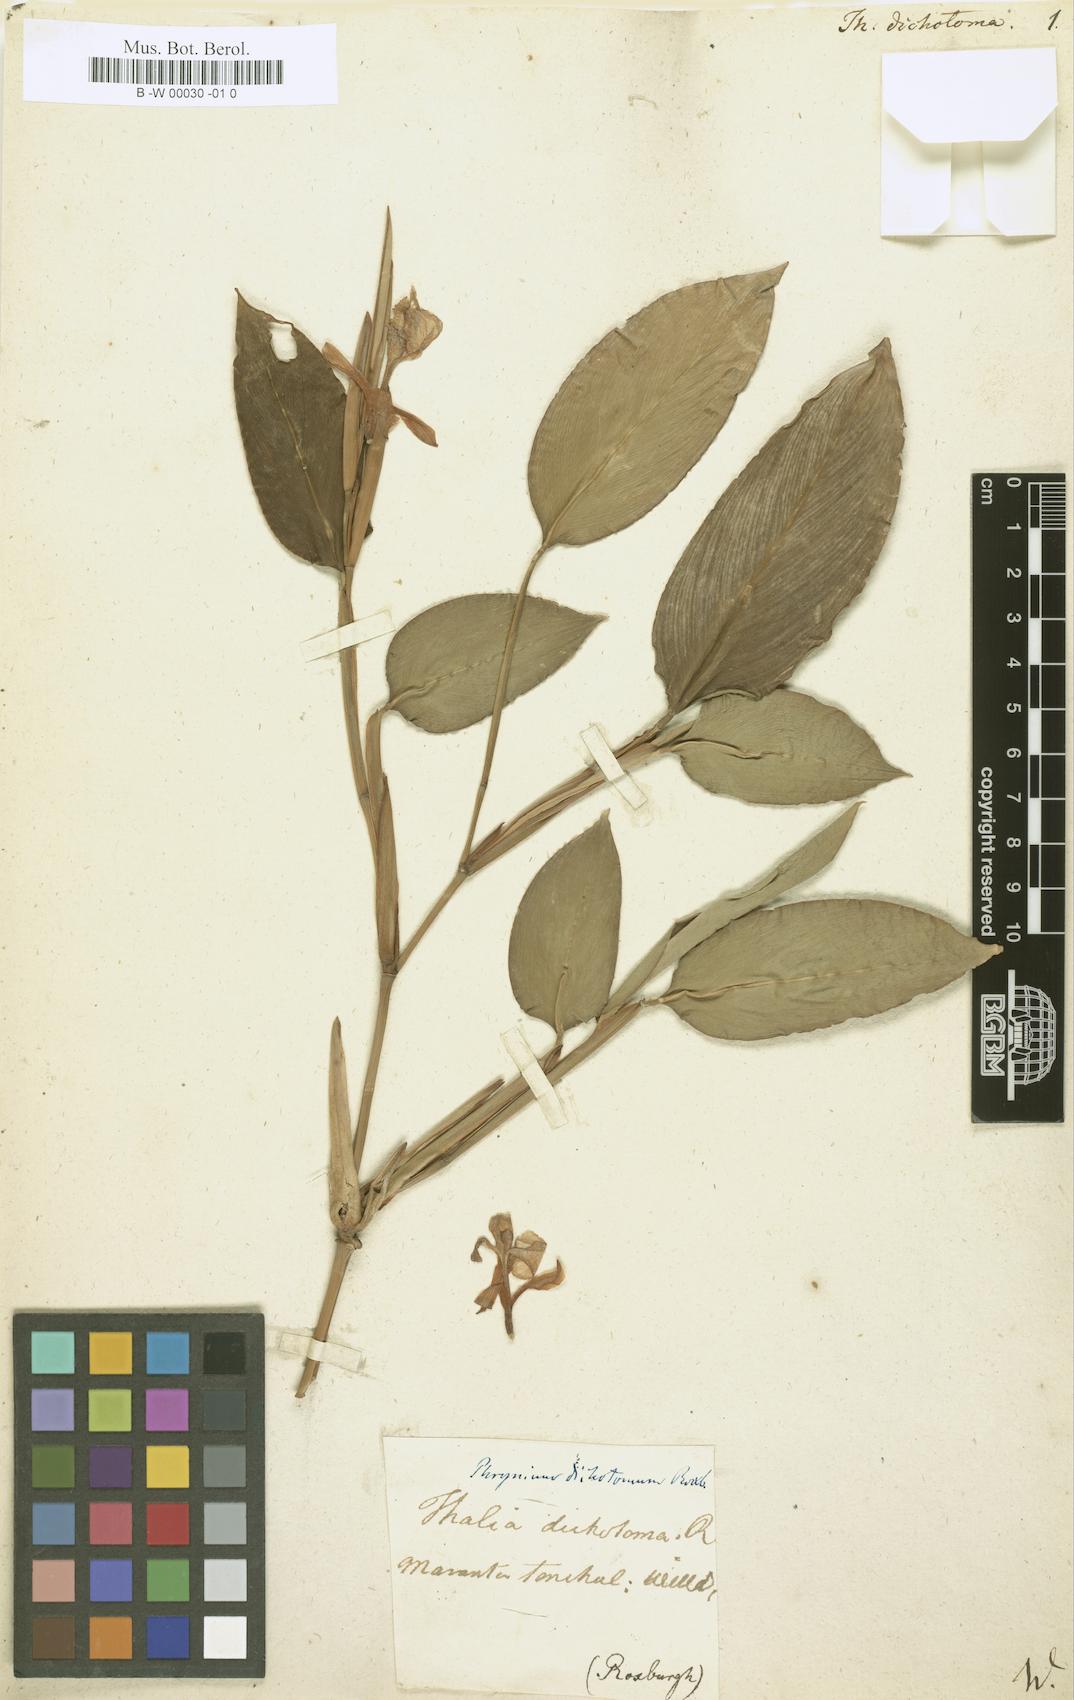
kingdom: Plantae
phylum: Tracheophyta
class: Liliopsida
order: Zingiberales
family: Marantaceae
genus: Schumannianthus
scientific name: Schumannianthus benthamianus
